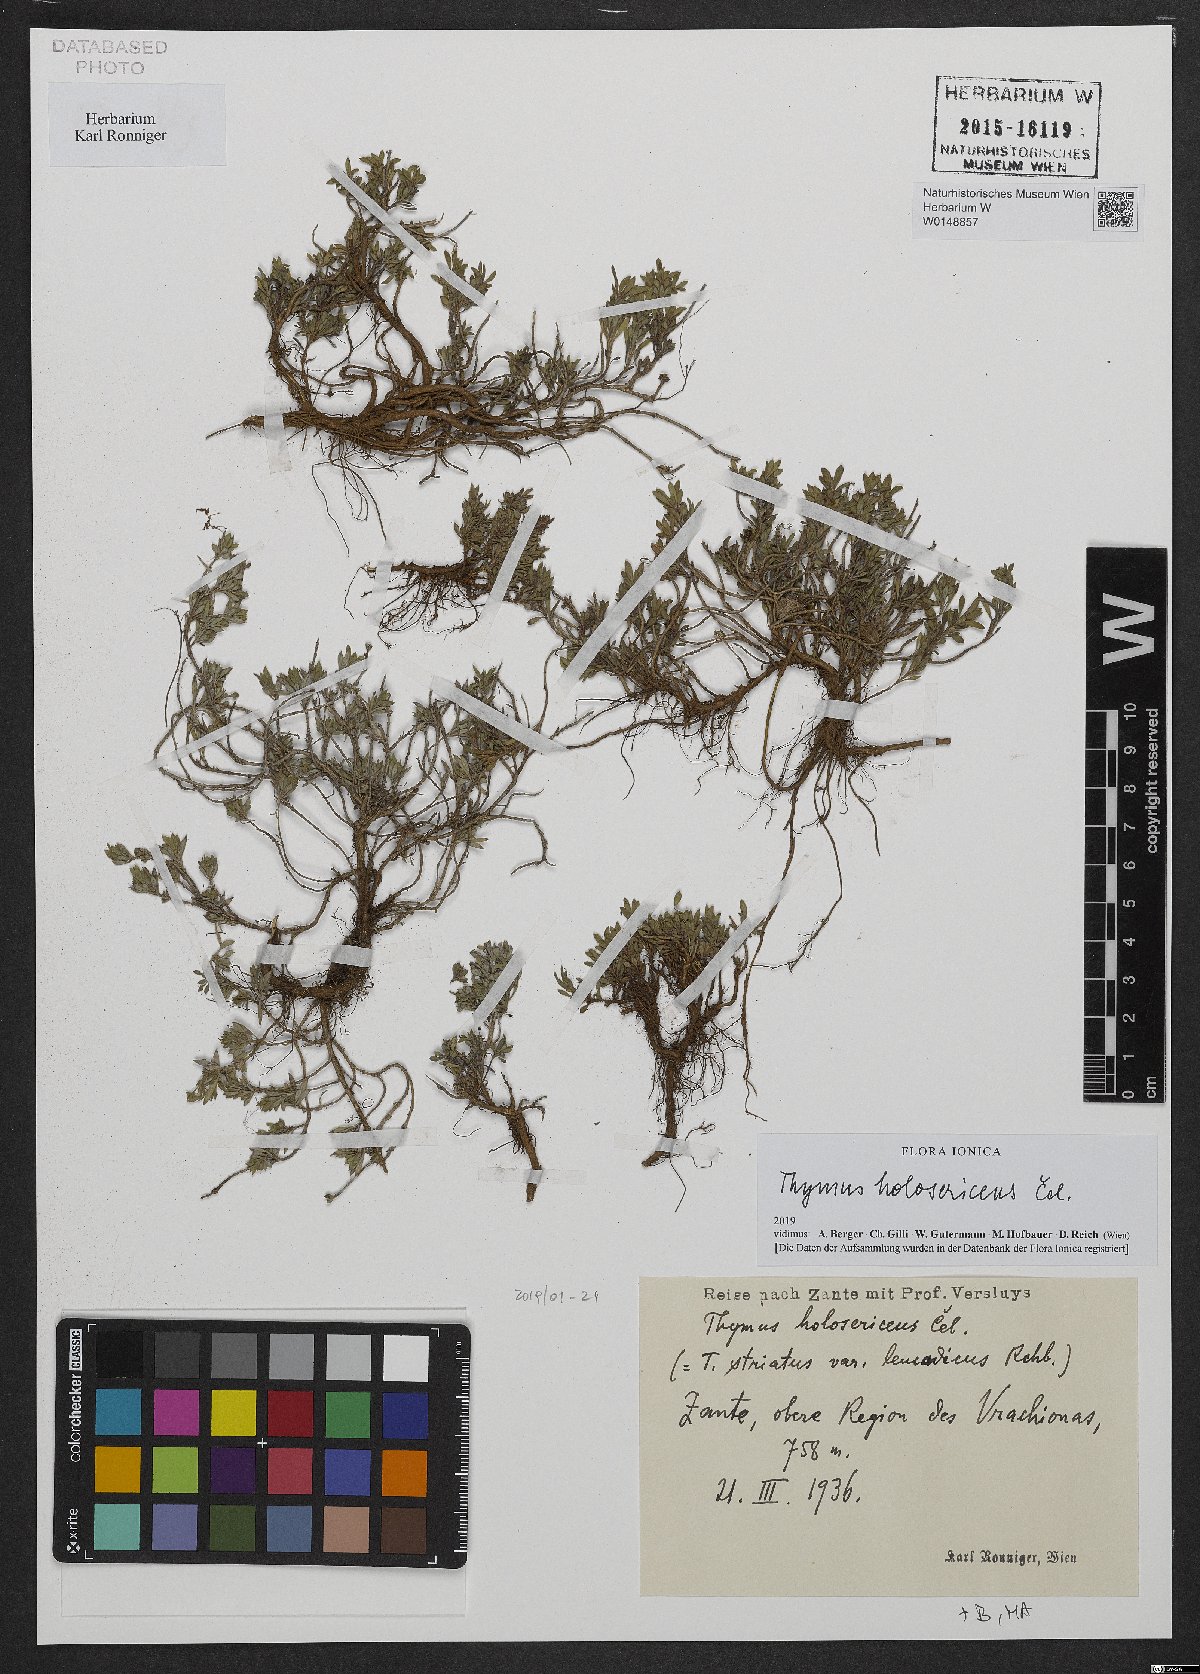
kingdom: Plantae
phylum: Tracheophyta
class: Magnoliopsida
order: Lamiales
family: Lamiaceae
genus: Thymus
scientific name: Thymus holosericeus
